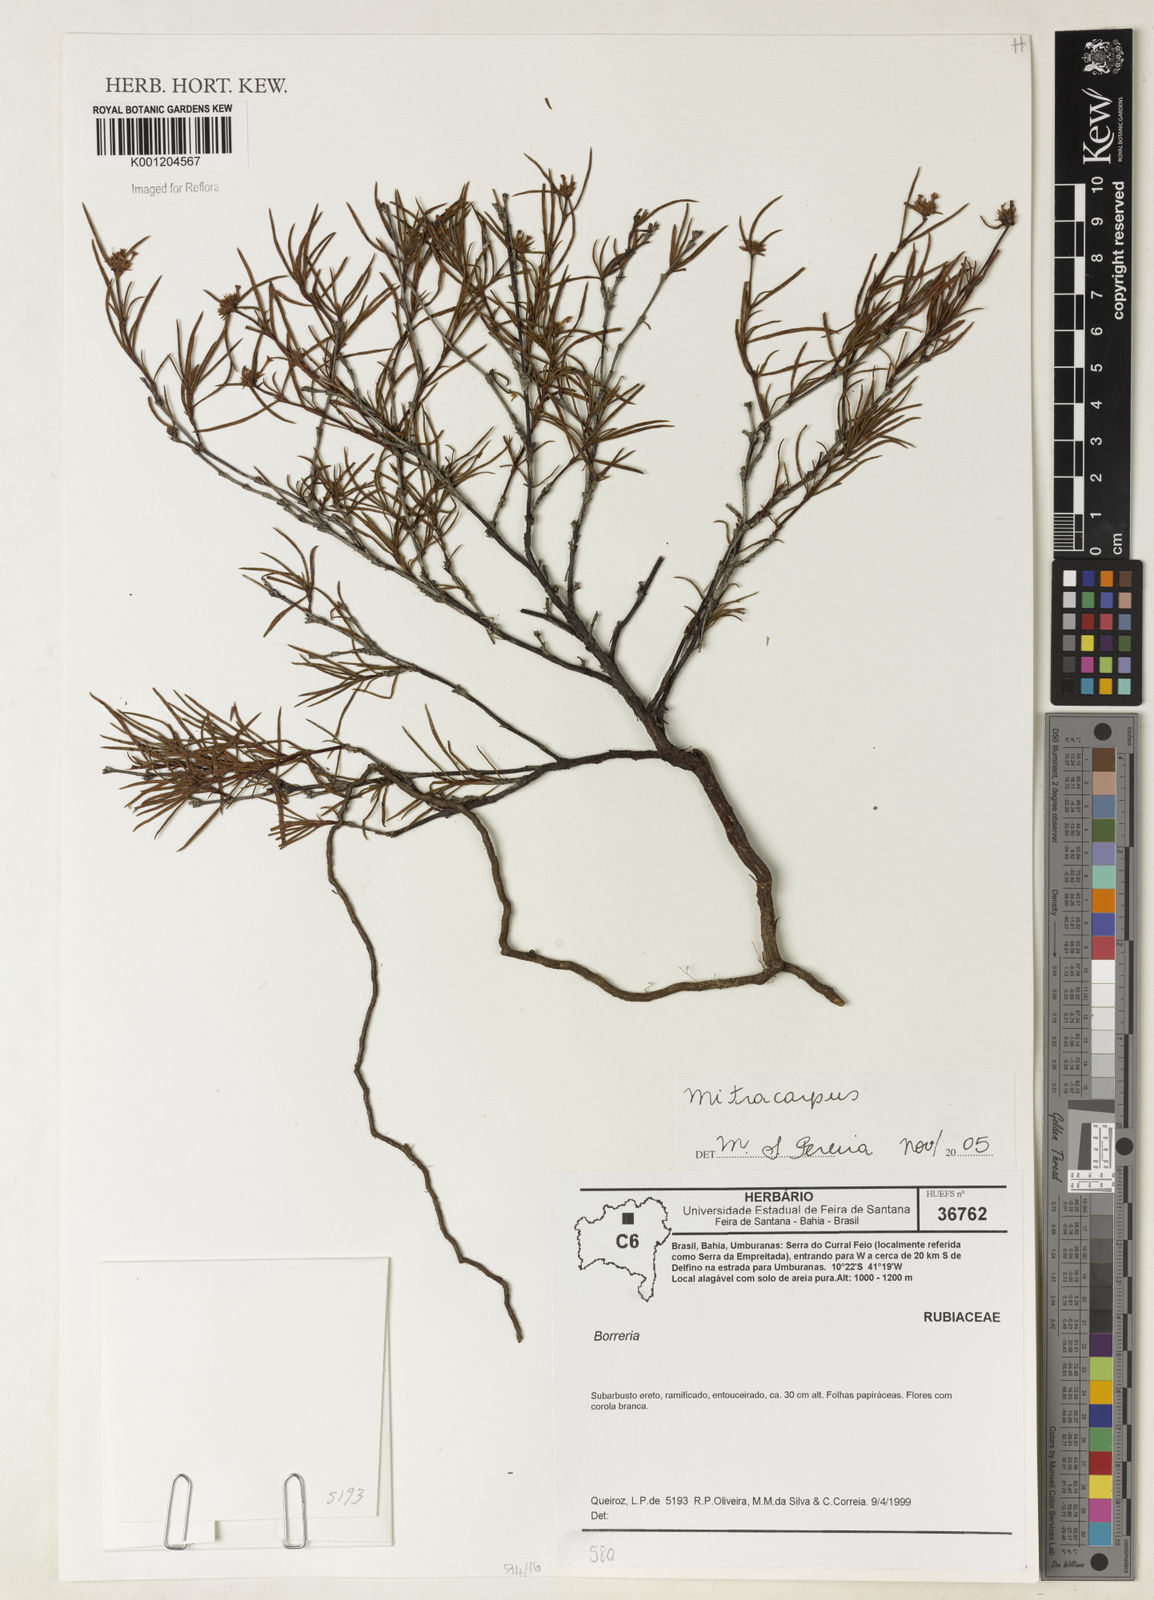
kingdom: Plantae
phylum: Tracheophyta
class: Magnoliopsida
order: Gentianales
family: Rubiaceae
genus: Mitracarpus
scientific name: Mitracarpus
